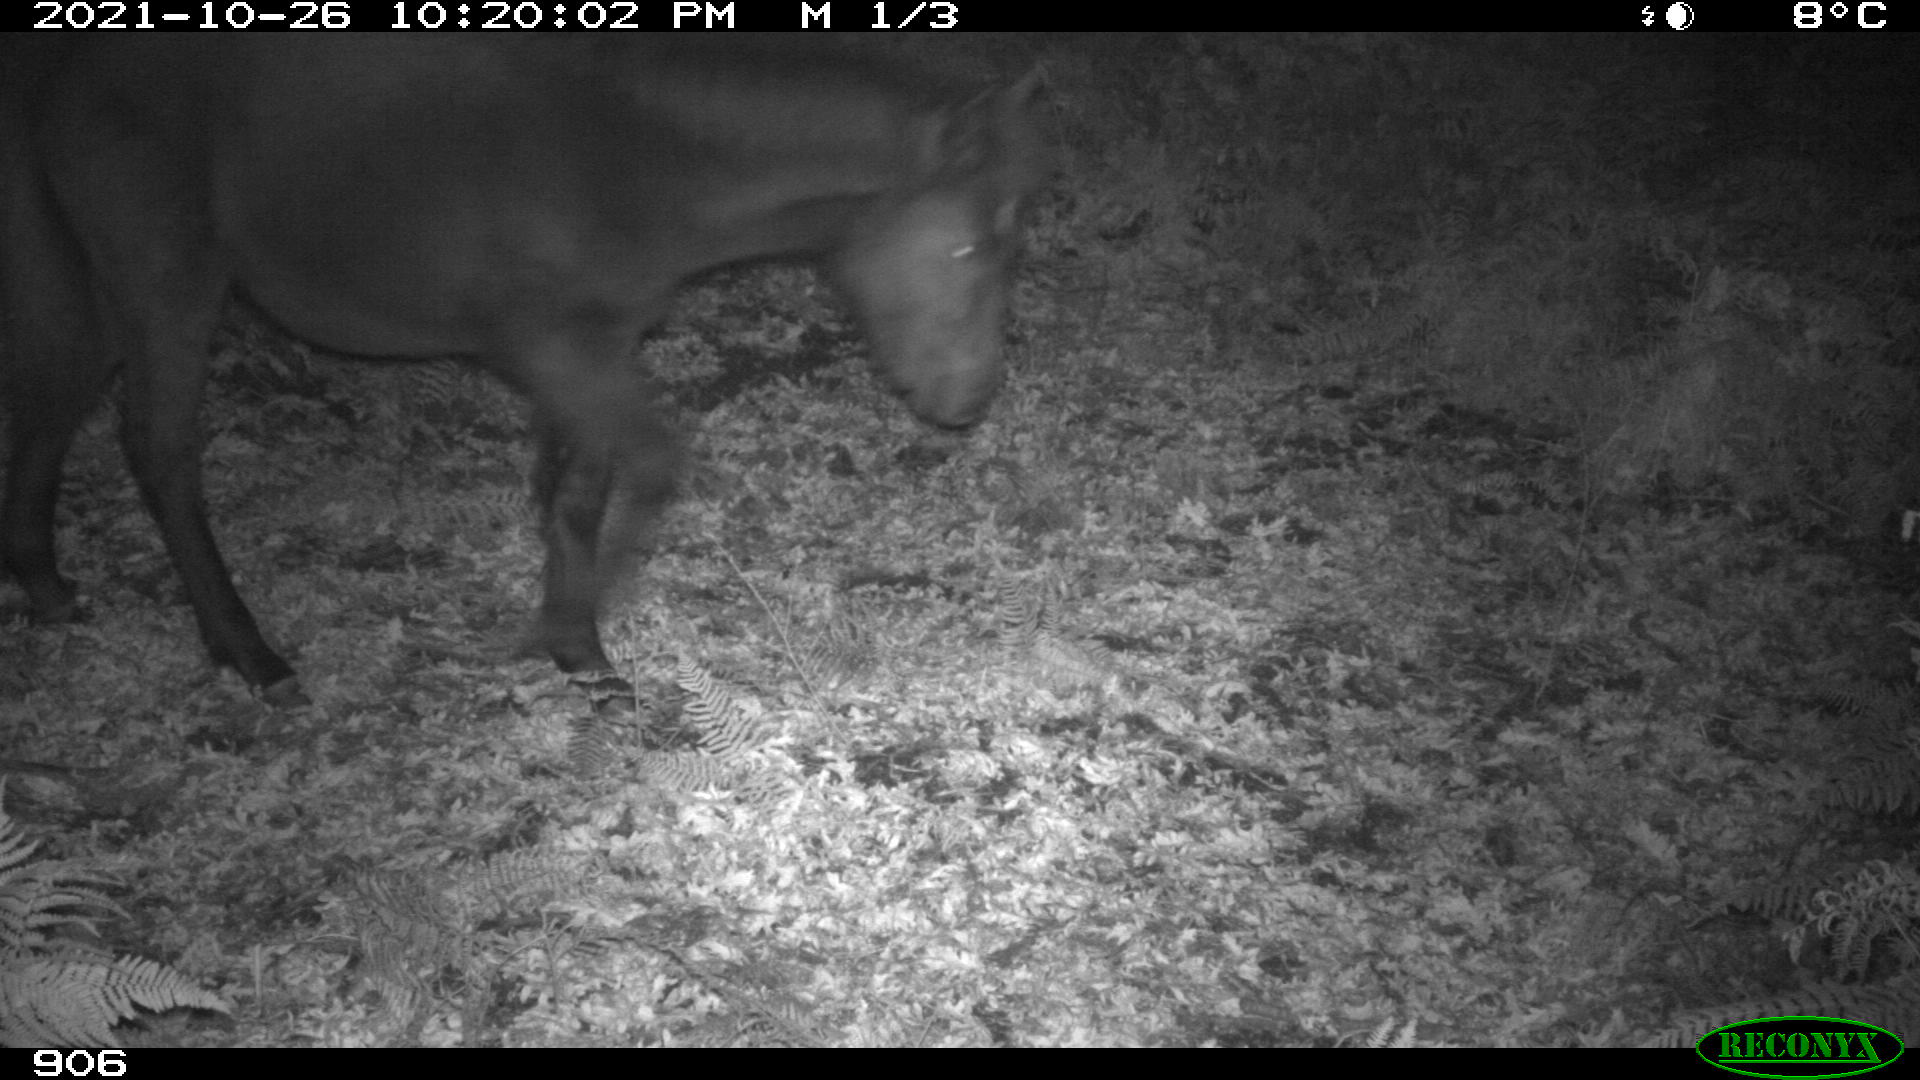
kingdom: Animalia
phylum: Chordata
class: Mammalia
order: Perissodactyla
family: Equidae
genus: Equus
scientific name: Equus caballus
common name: Horse
